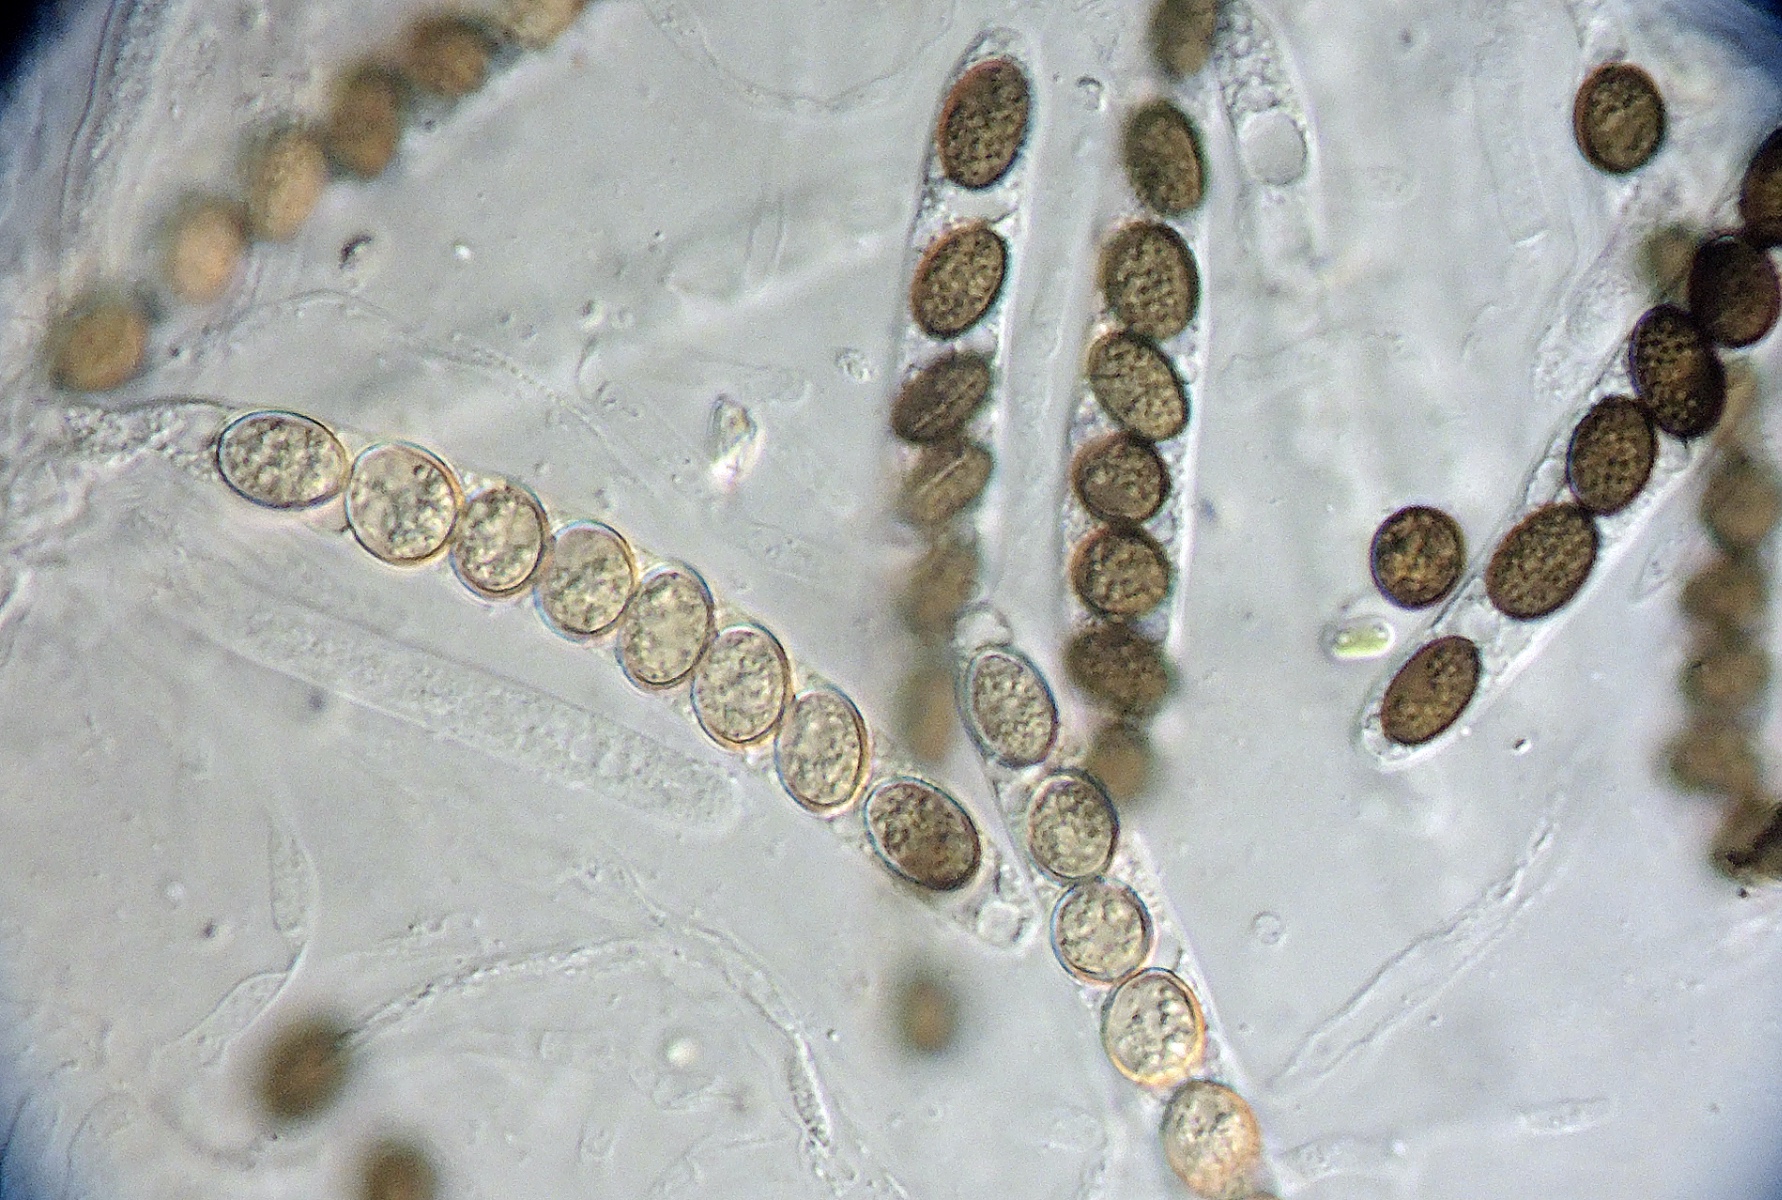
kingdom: Fungi
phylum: Ascomycota
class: Sordariomycetes
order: Coniochaetales
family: Coniochaetaceae
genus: Coniochaeta
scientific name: Coniochaeta subcorticalis
